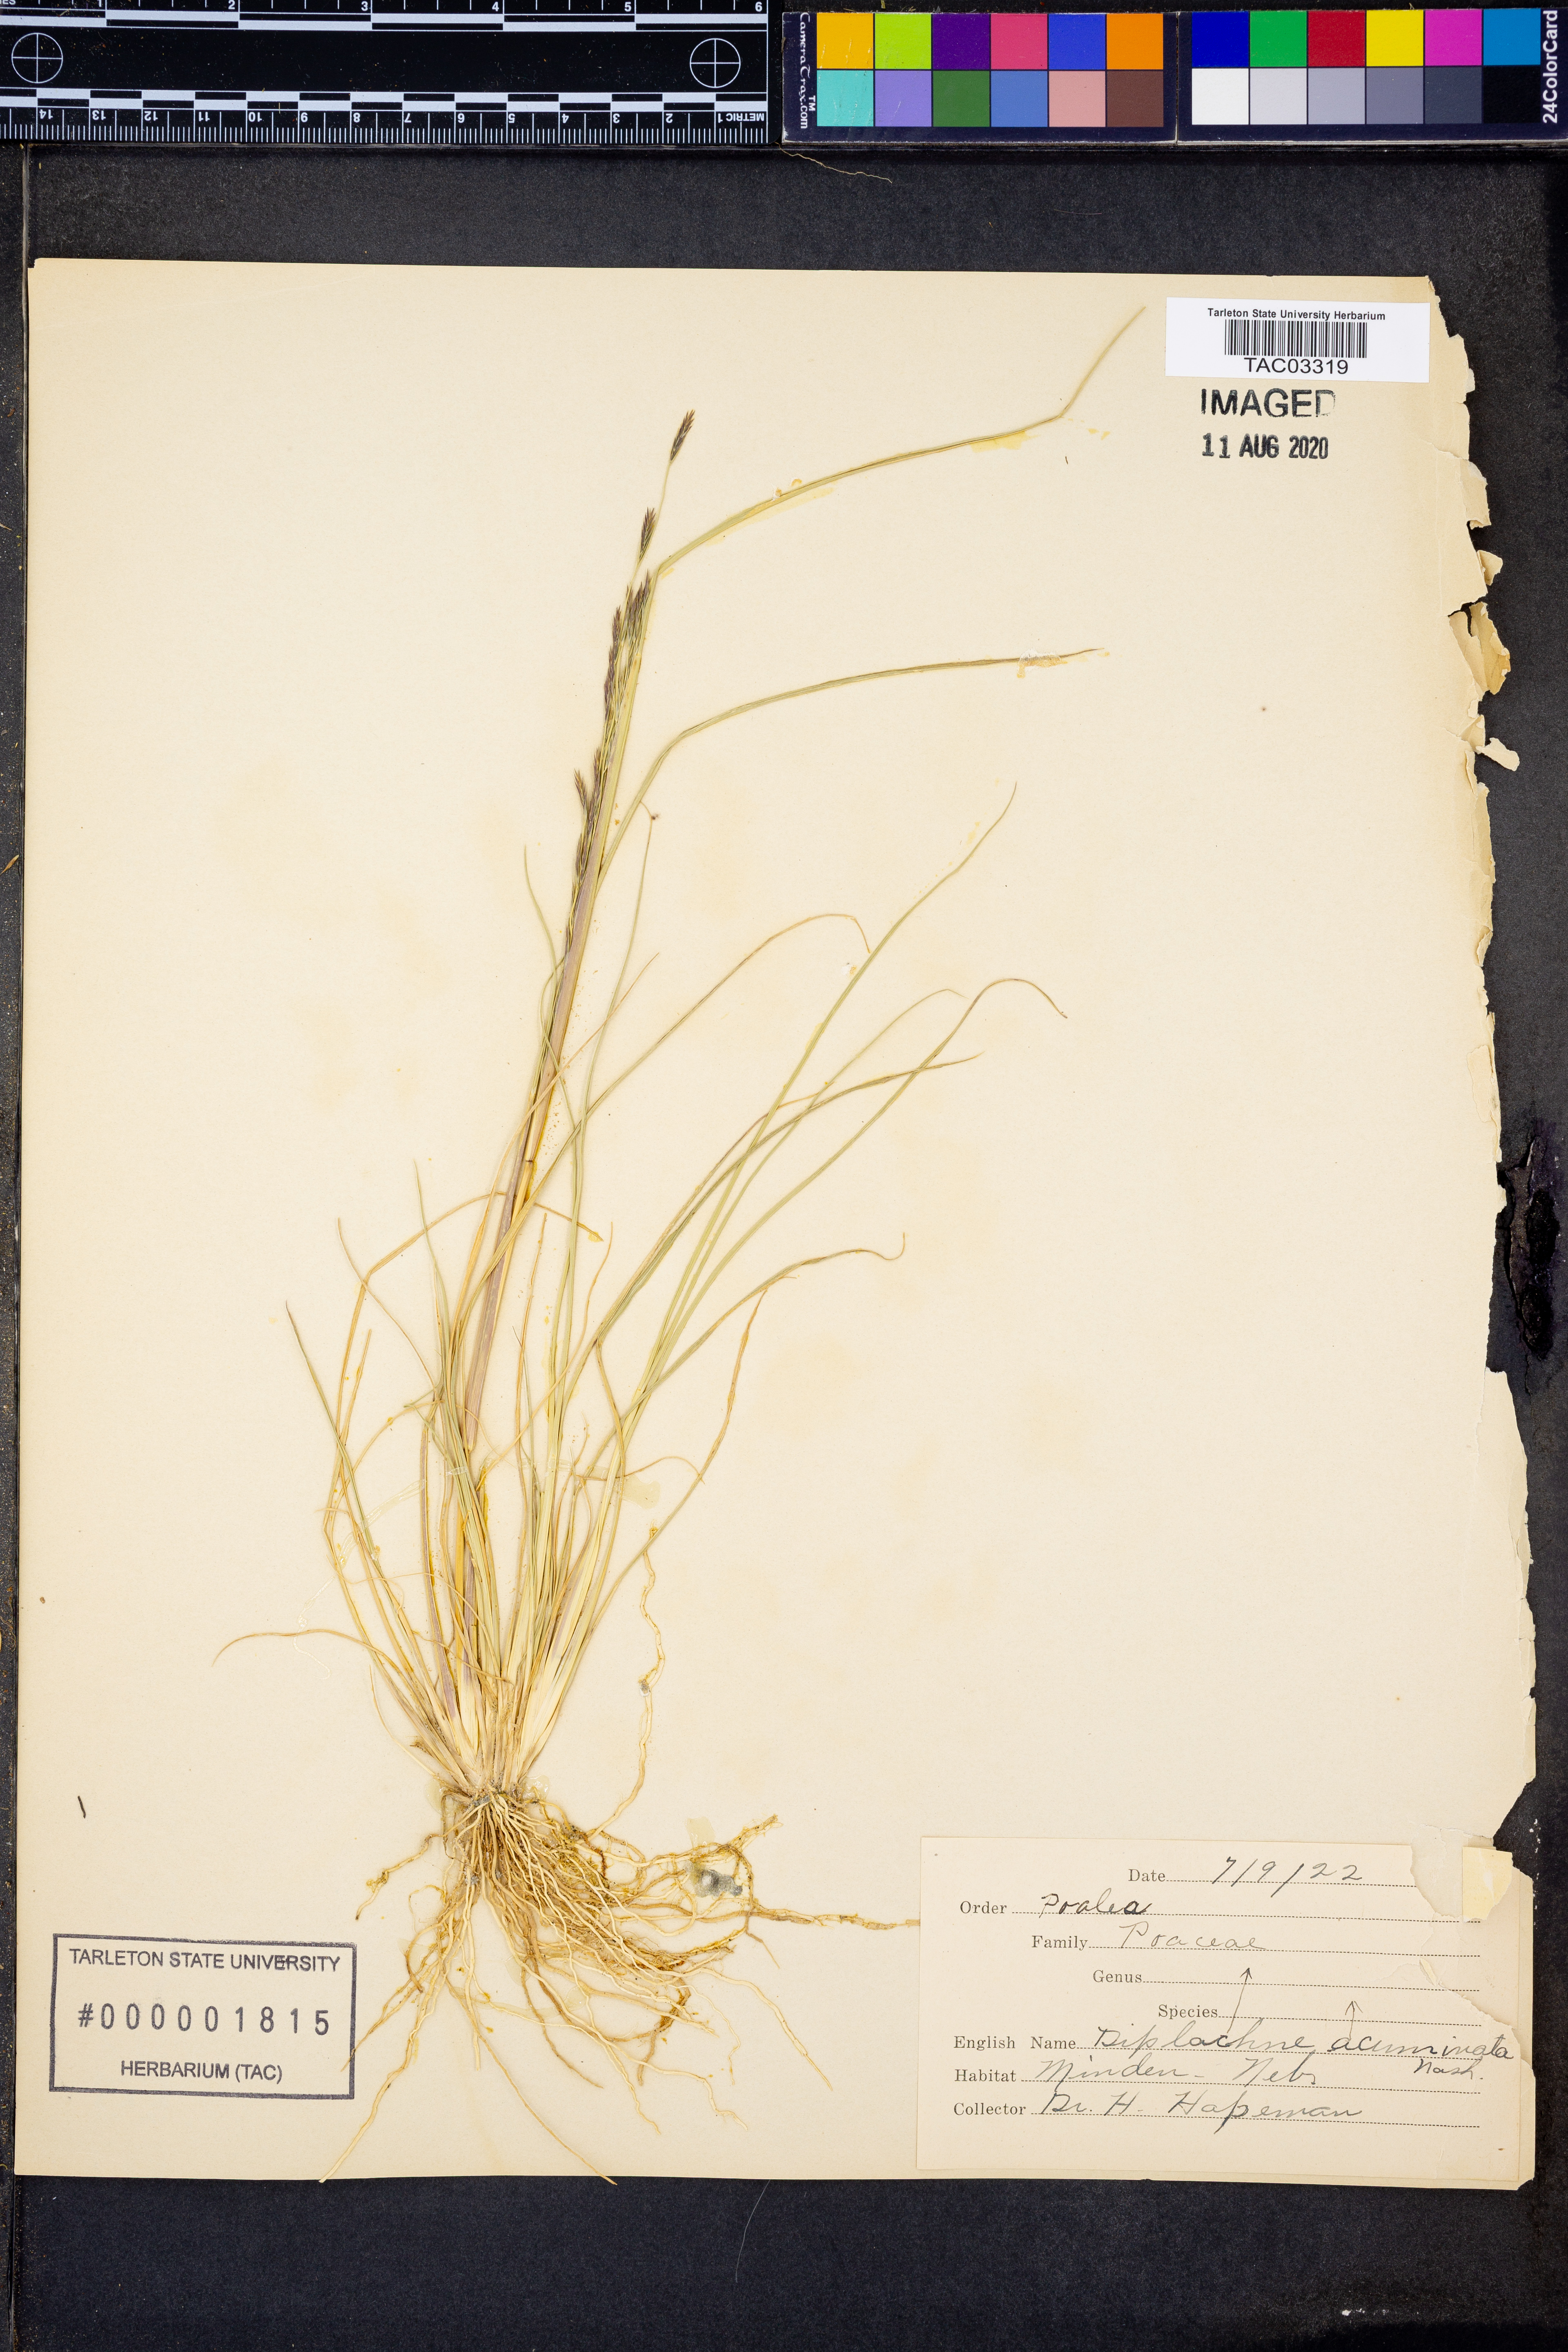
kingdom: Plantae
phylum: Tracheophyta
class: Liliopsida
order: Poales
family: Poaceae
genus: Diplachne
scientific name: Diplachne fusca
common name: Brown beetle grass
